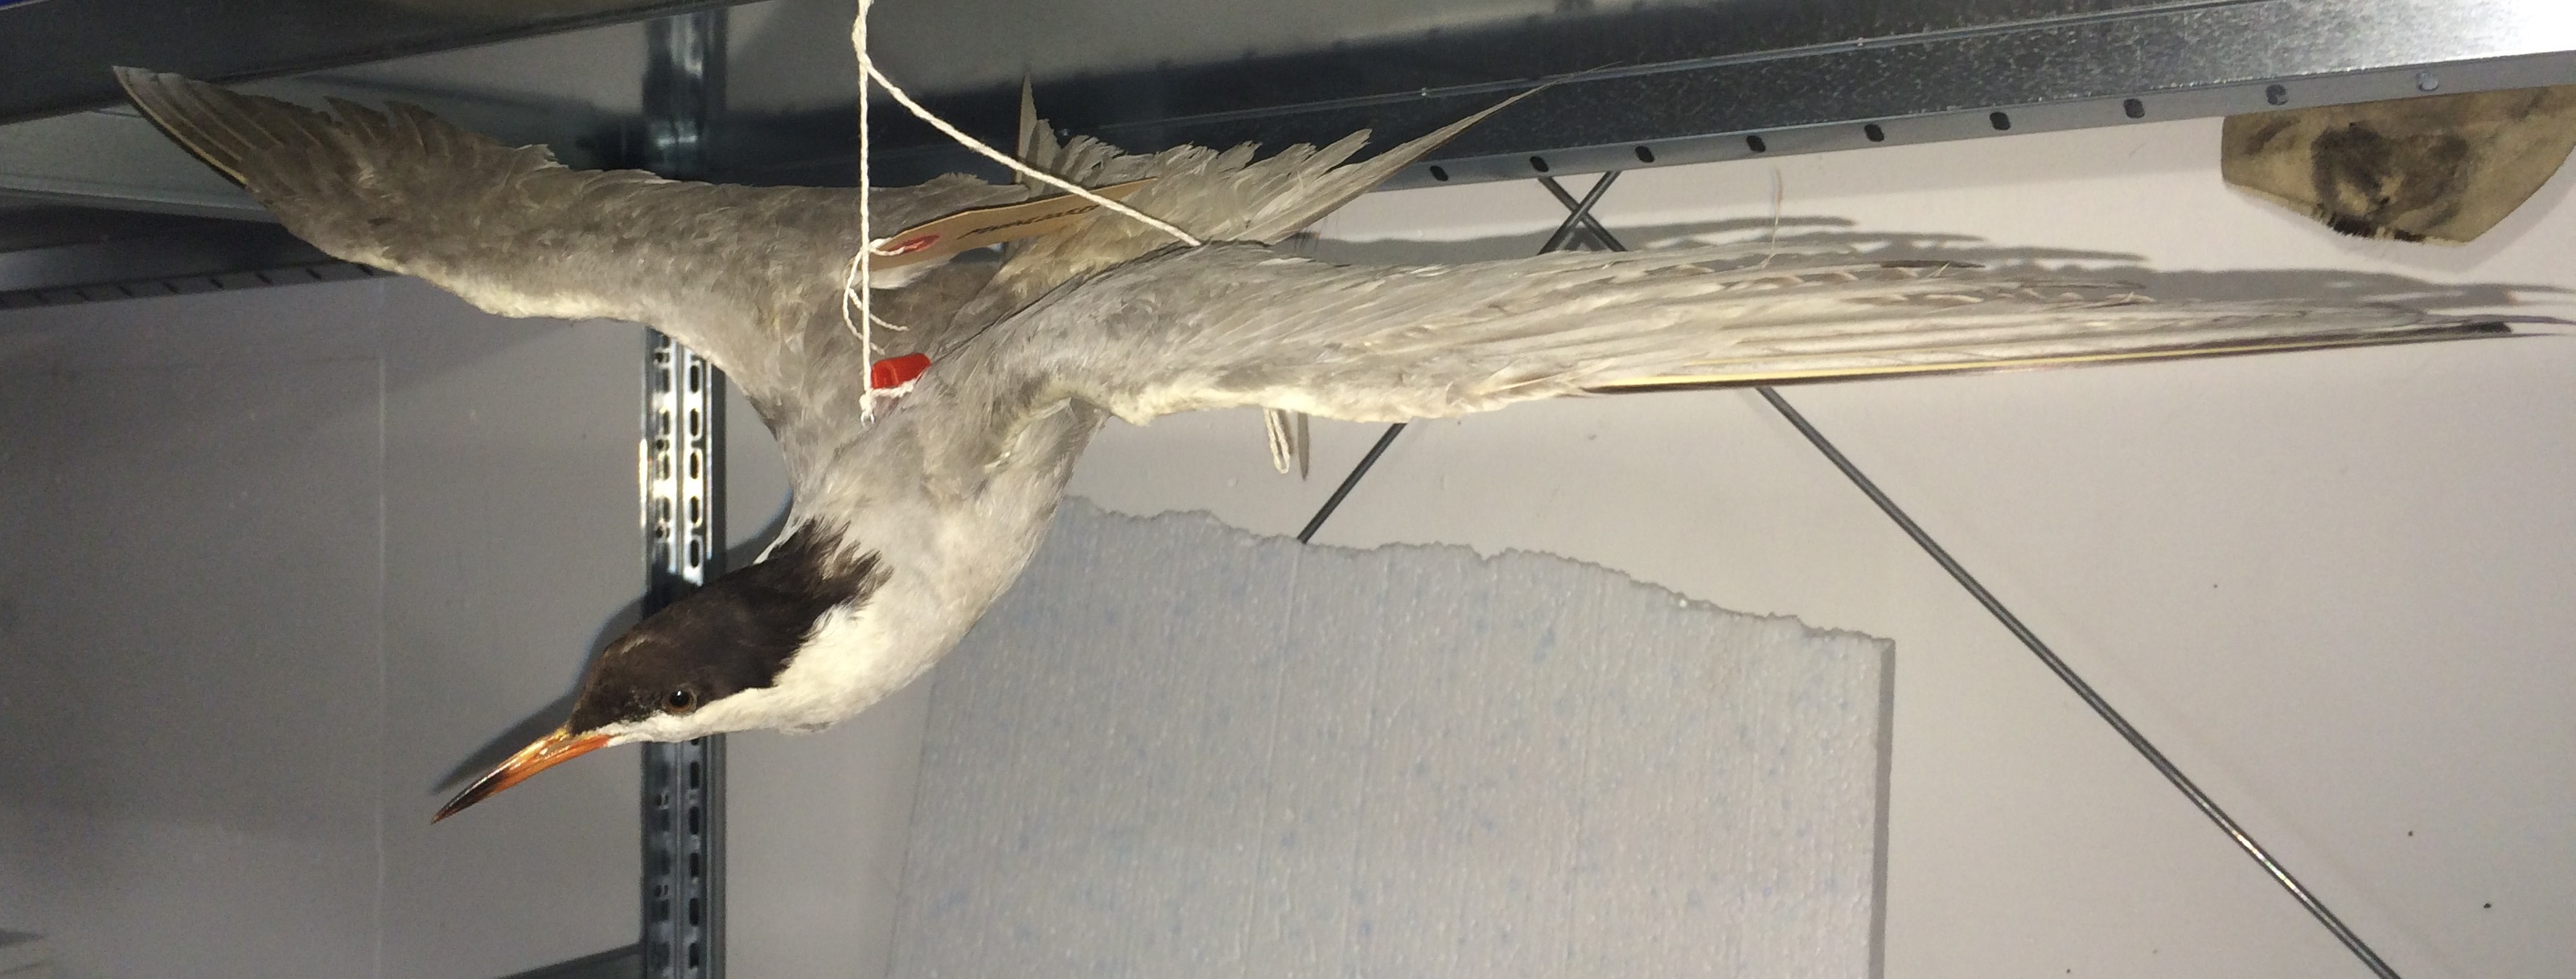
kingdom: Animalia
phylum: Chordata
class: Aves
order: Charadriiformes
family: Laridae
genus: Sterna
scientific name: Sterna hirundo
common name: Common tern
